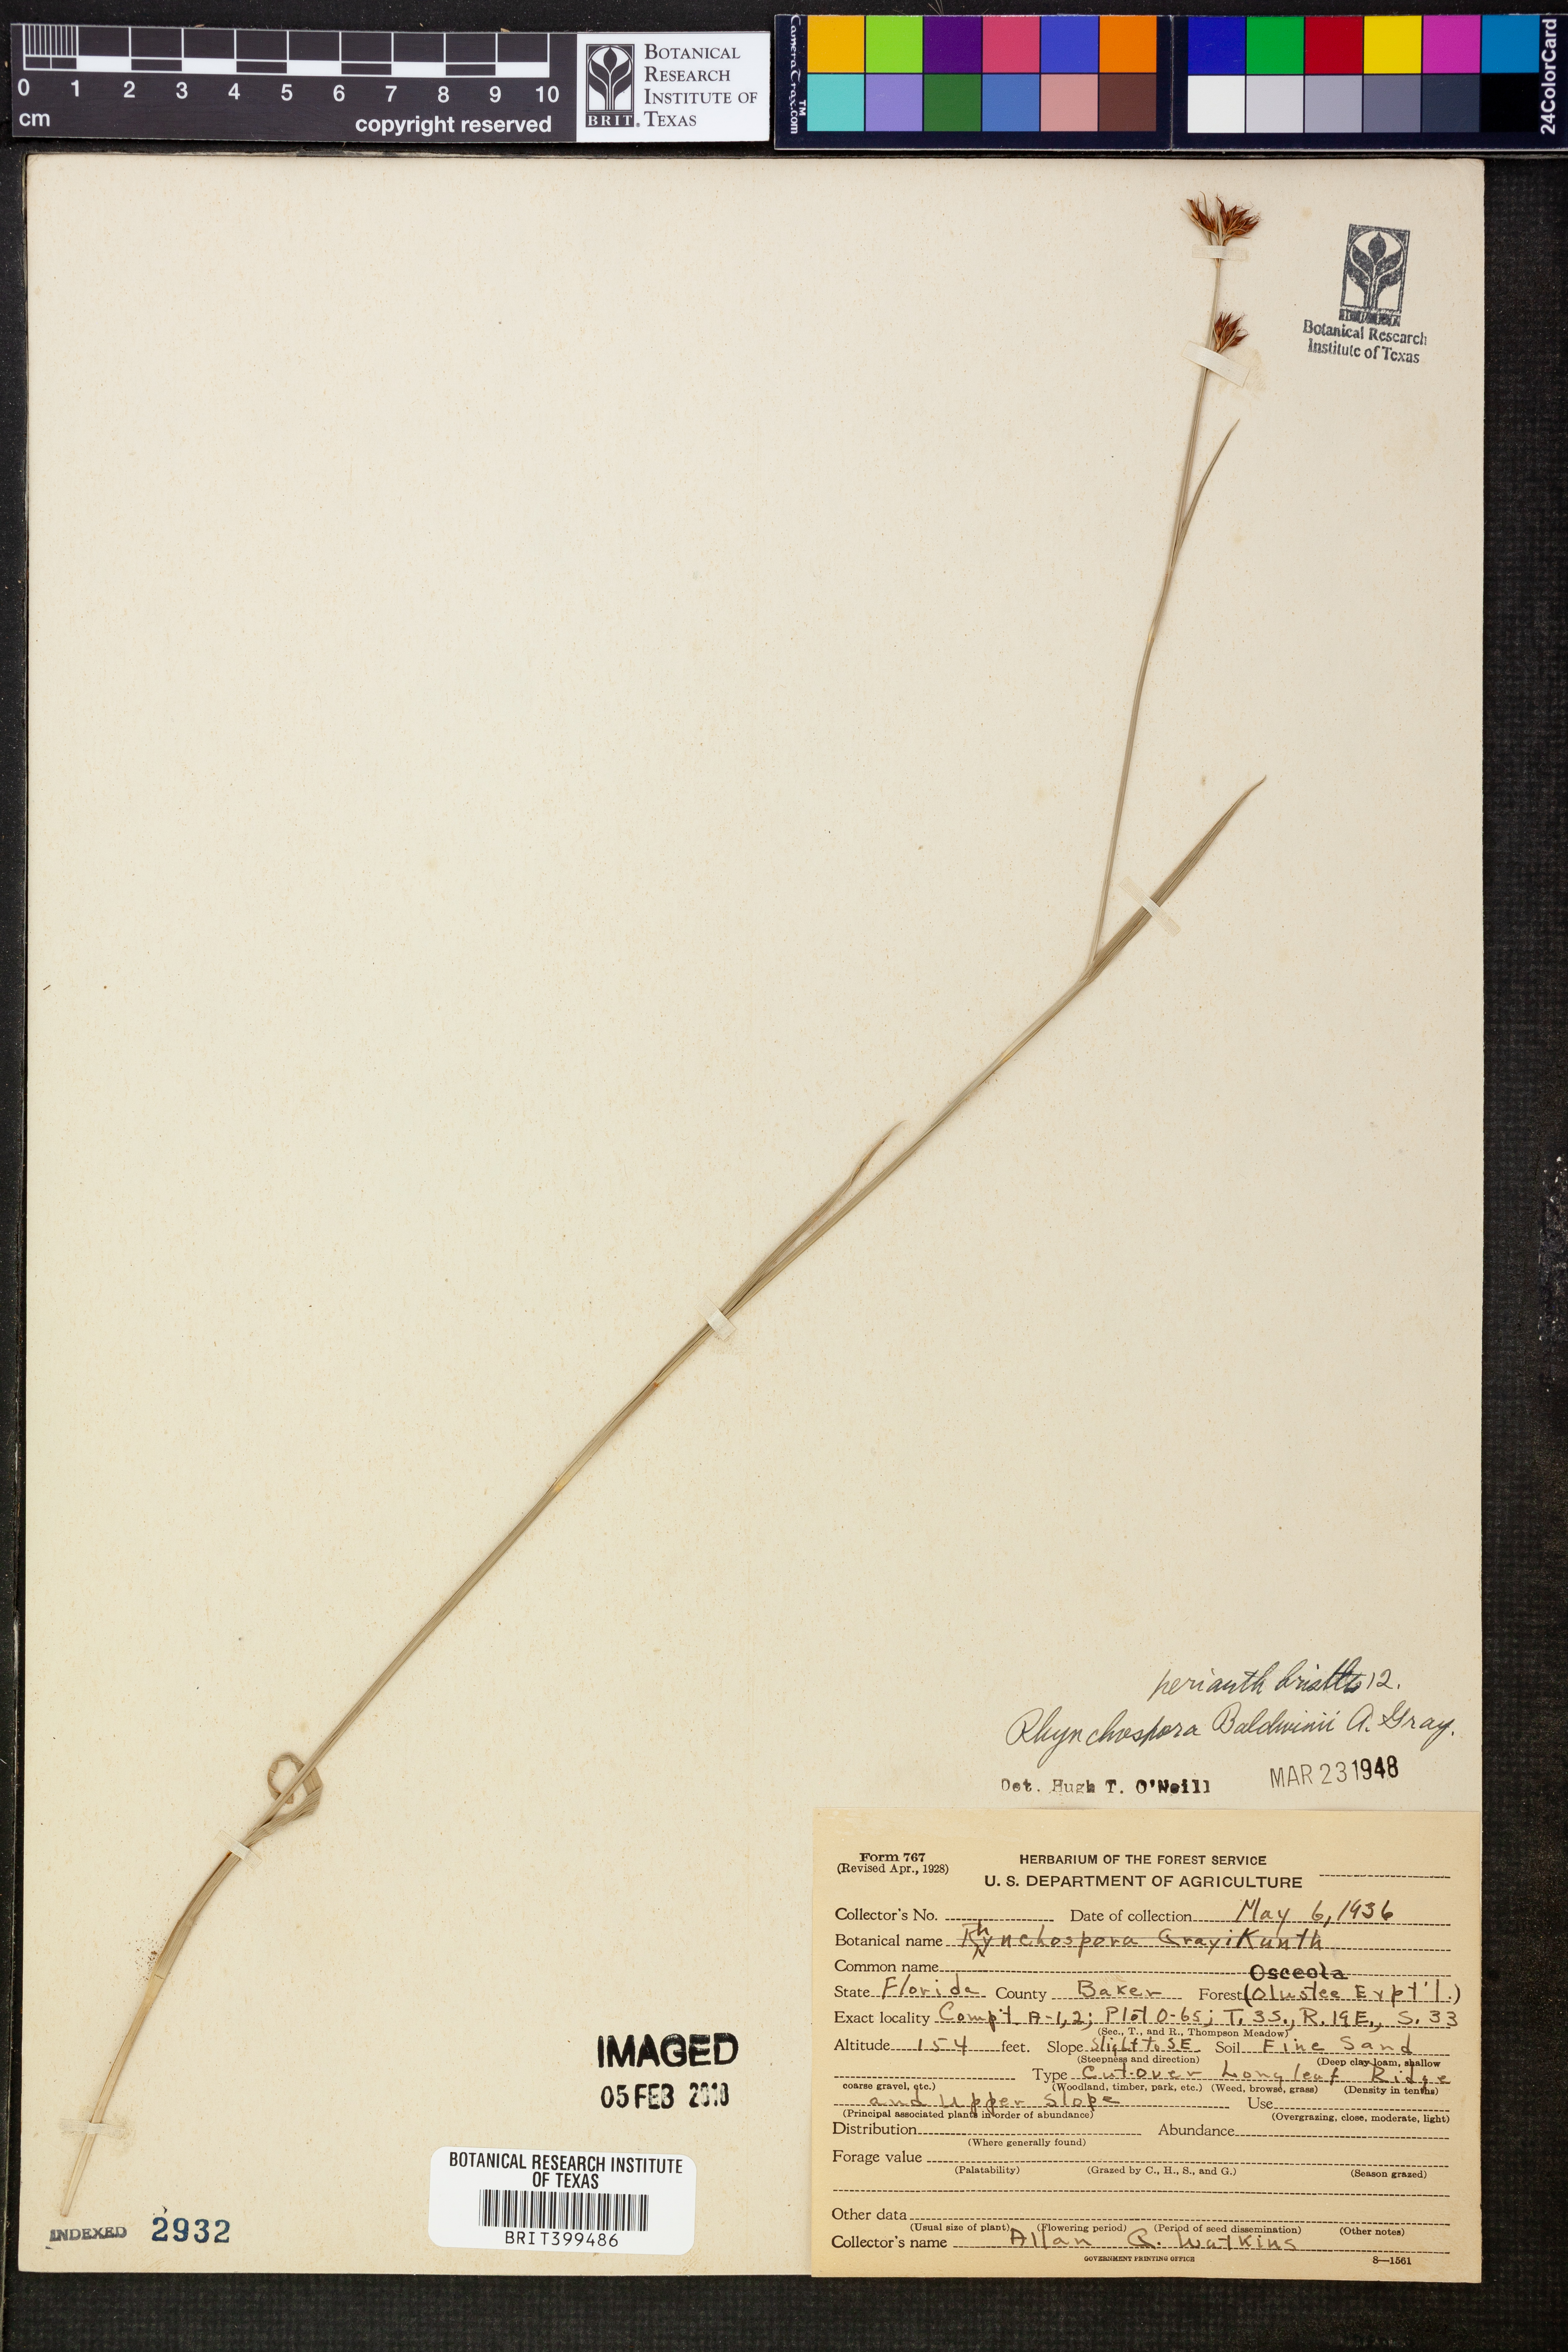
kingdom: Plantae
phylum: Tracheophyta
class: Liliopsida
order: Poales
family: Cyperaceae
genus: Rhynchospora
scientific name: Rhynchospora baldwinii
